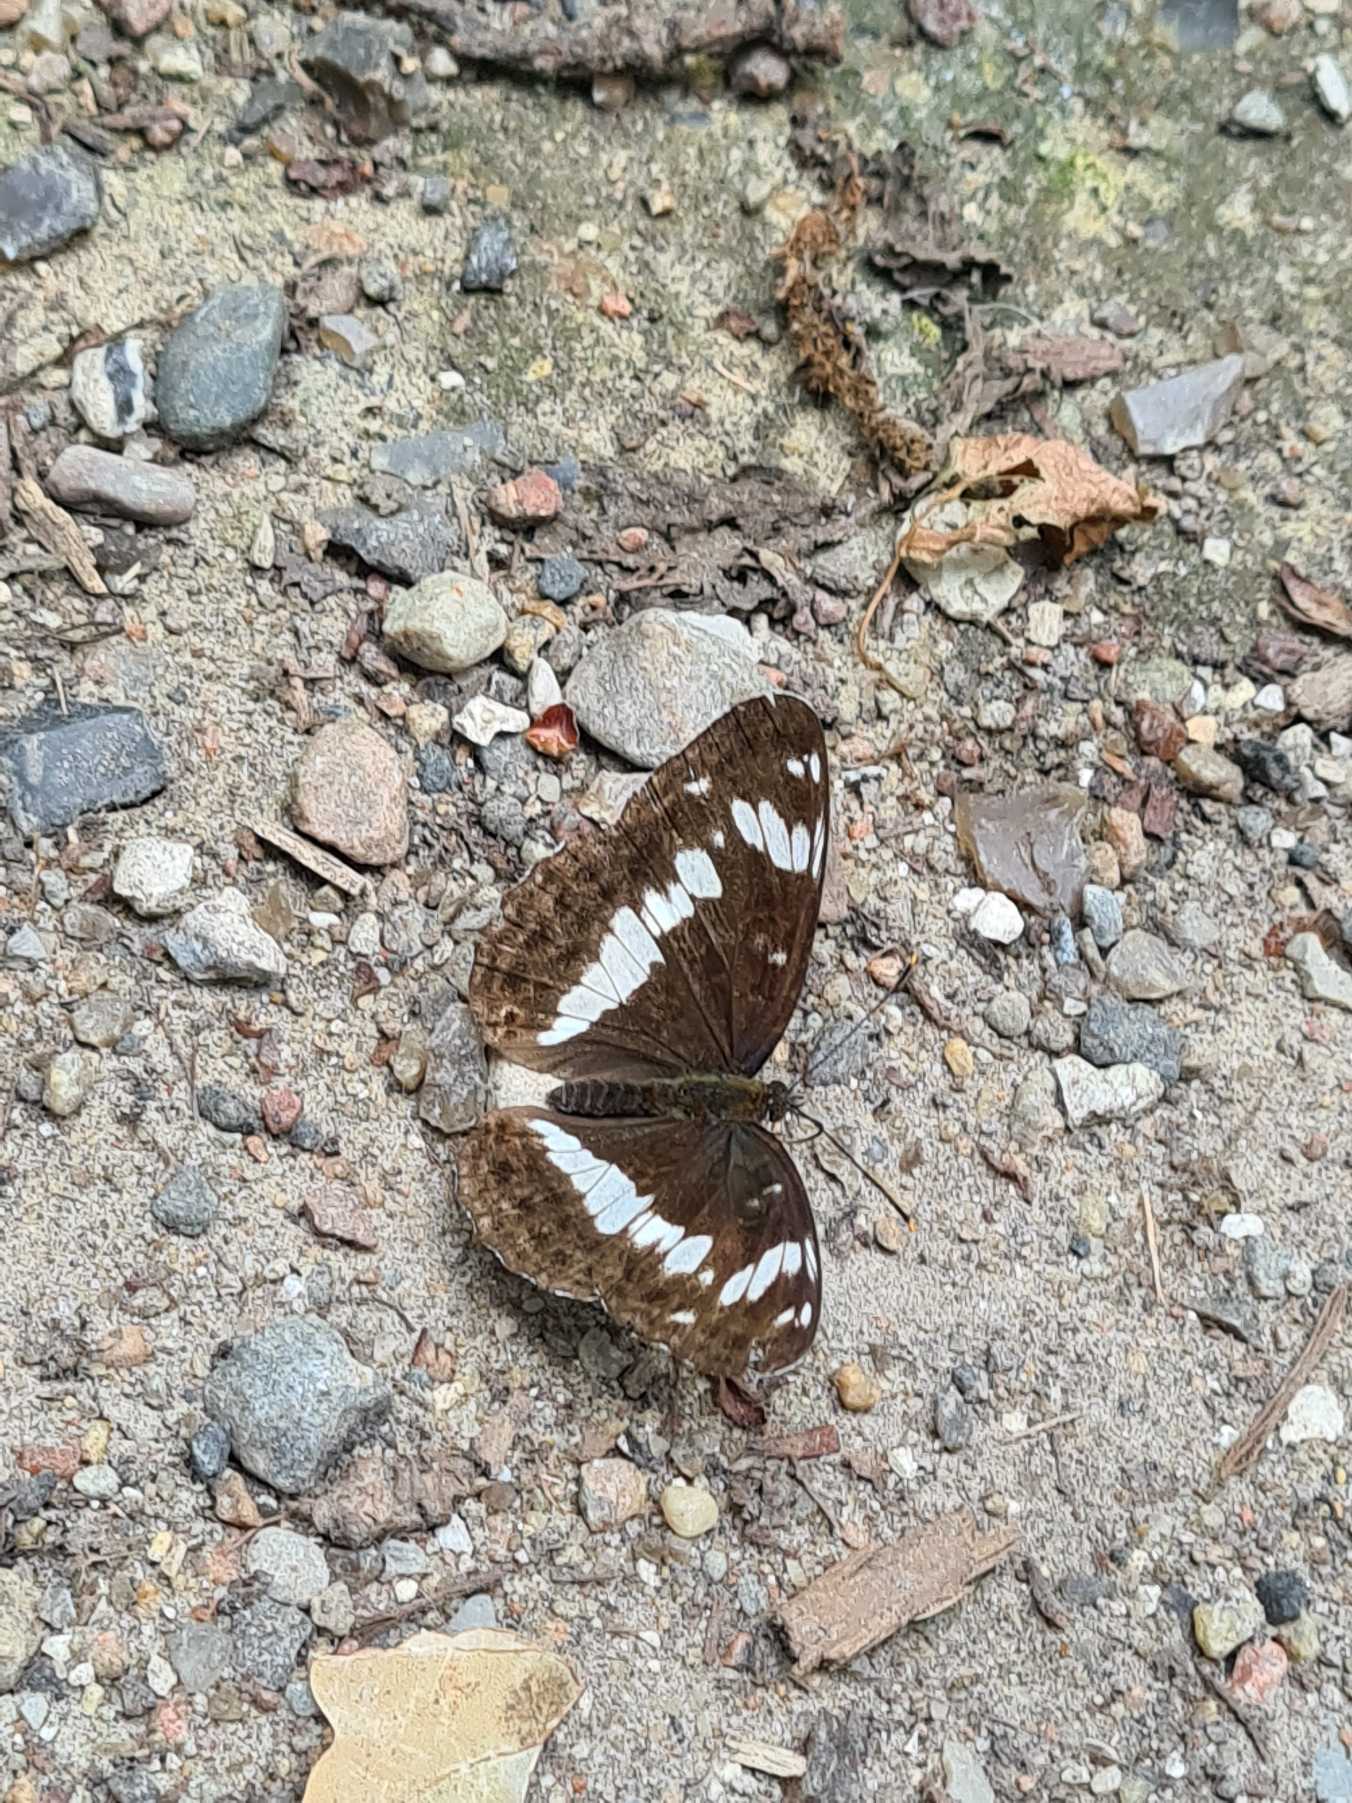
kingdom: Animalia
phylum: Arthropoda
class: Insecta
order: Lepidoptera
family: Nymphalidae
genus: Ladoga
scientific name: Ladoga camilla
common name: Hvid admiral
